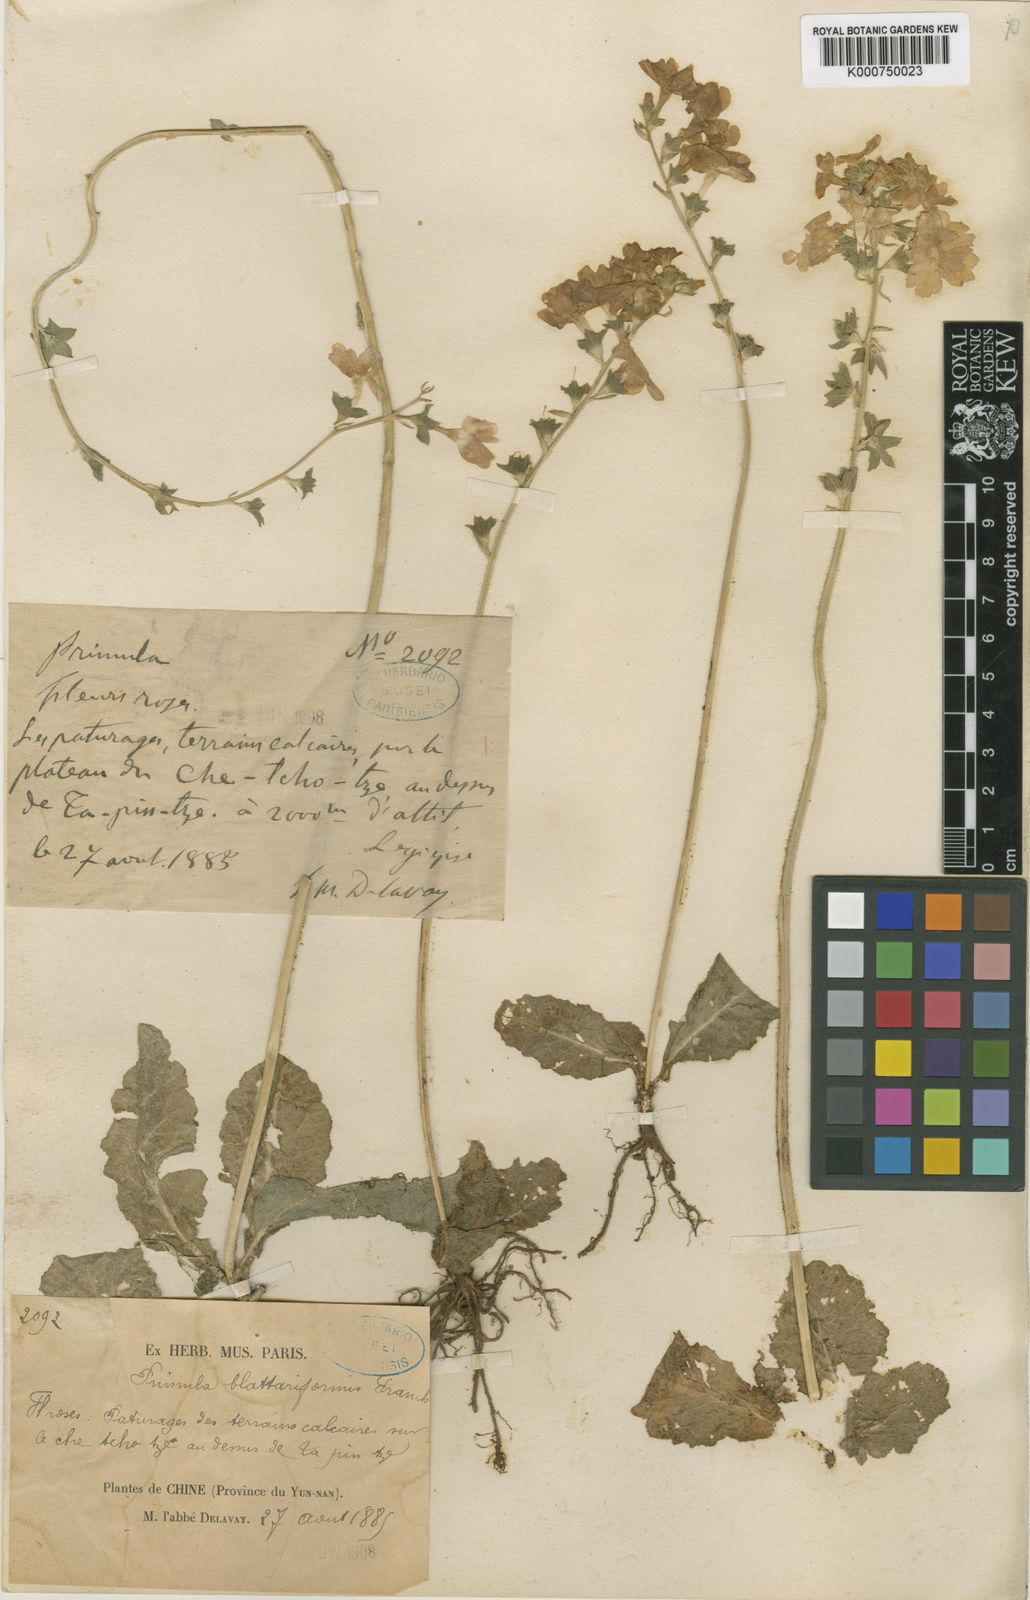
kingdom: Plantae
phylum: Tracheophyta
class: Magnoliopsida
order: Ericales
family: Primulaceae
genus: Primula
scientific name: Primula blattariformis
